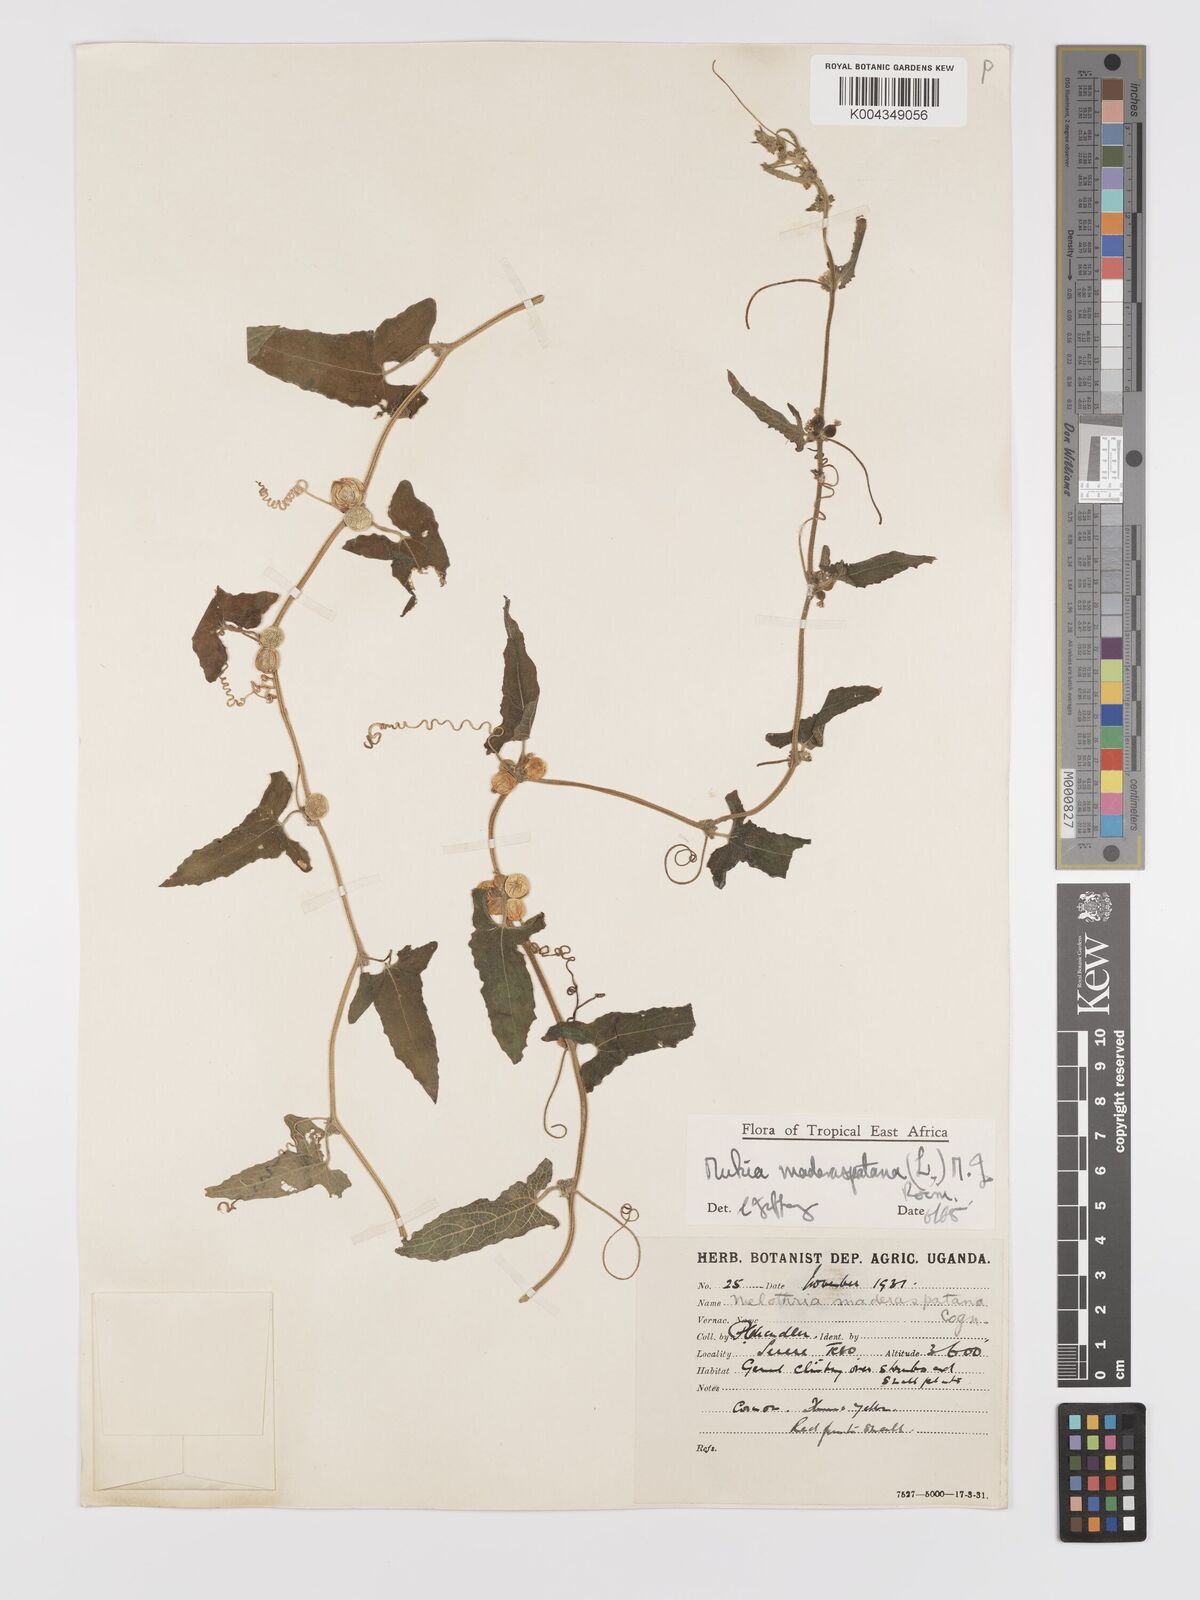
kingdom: Plantae
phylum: Tracheophyta
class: Magnoliopsida
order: Cucurbitales
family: Cucurbitaceae
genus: Cucumis
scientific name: Cucumis maderaspatanus
